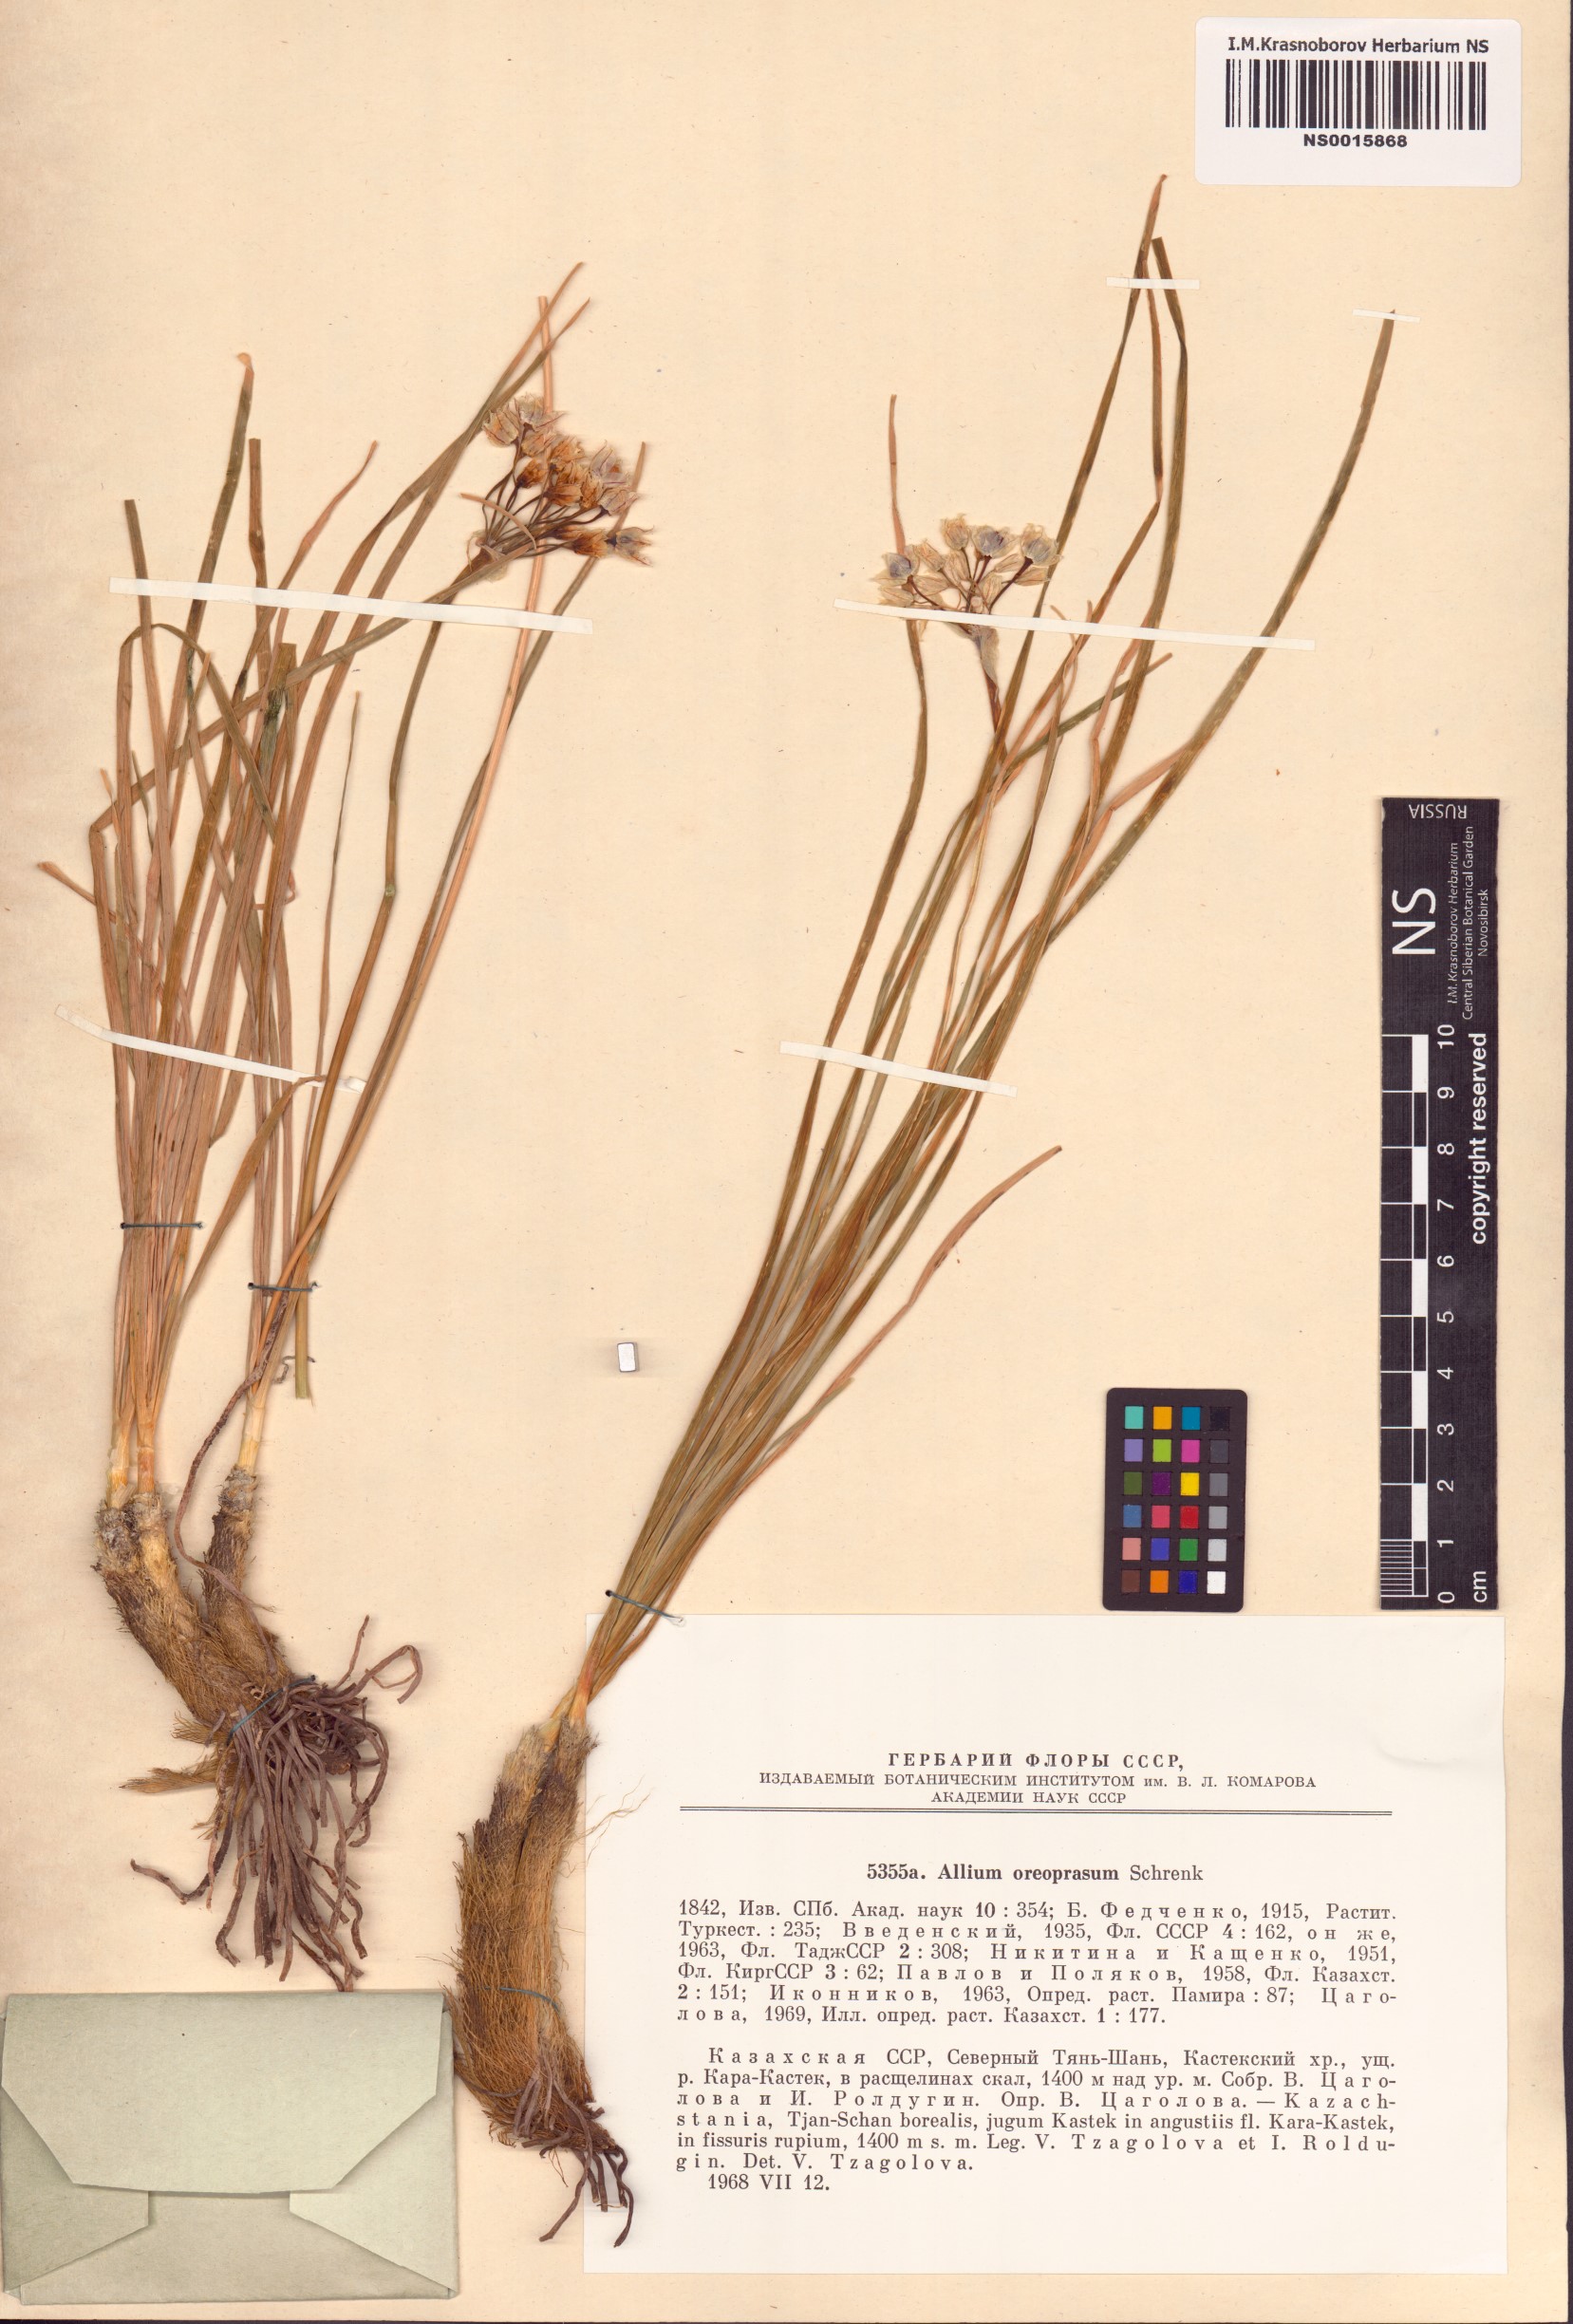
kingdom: Plantae
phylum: Tracheophyta
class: Liliopsida
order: Asparagales
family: Amaryllidaceae
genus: Allium
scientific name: Allium oreoprasum
